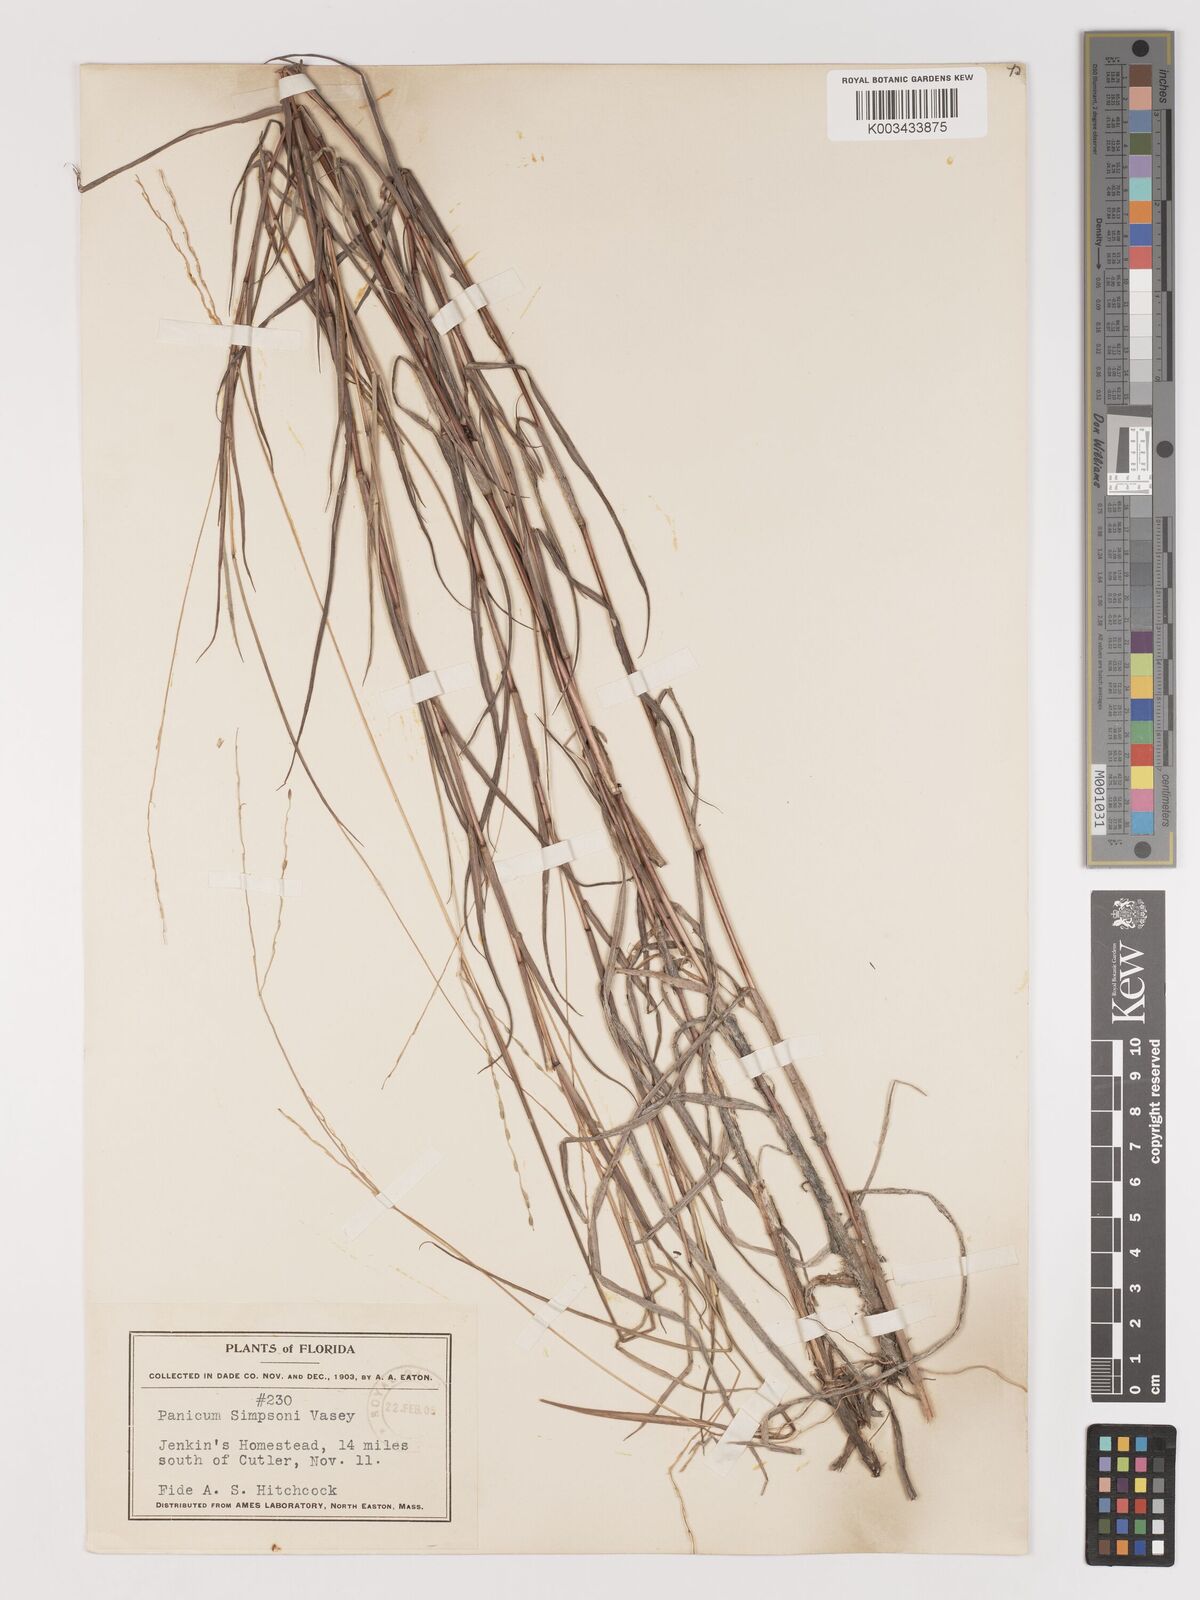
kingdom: Plantae
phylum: Tracheophyta
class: Liliopsida
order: Poales
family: Poaceae
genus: Digitaria
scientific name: Digitaria texana
